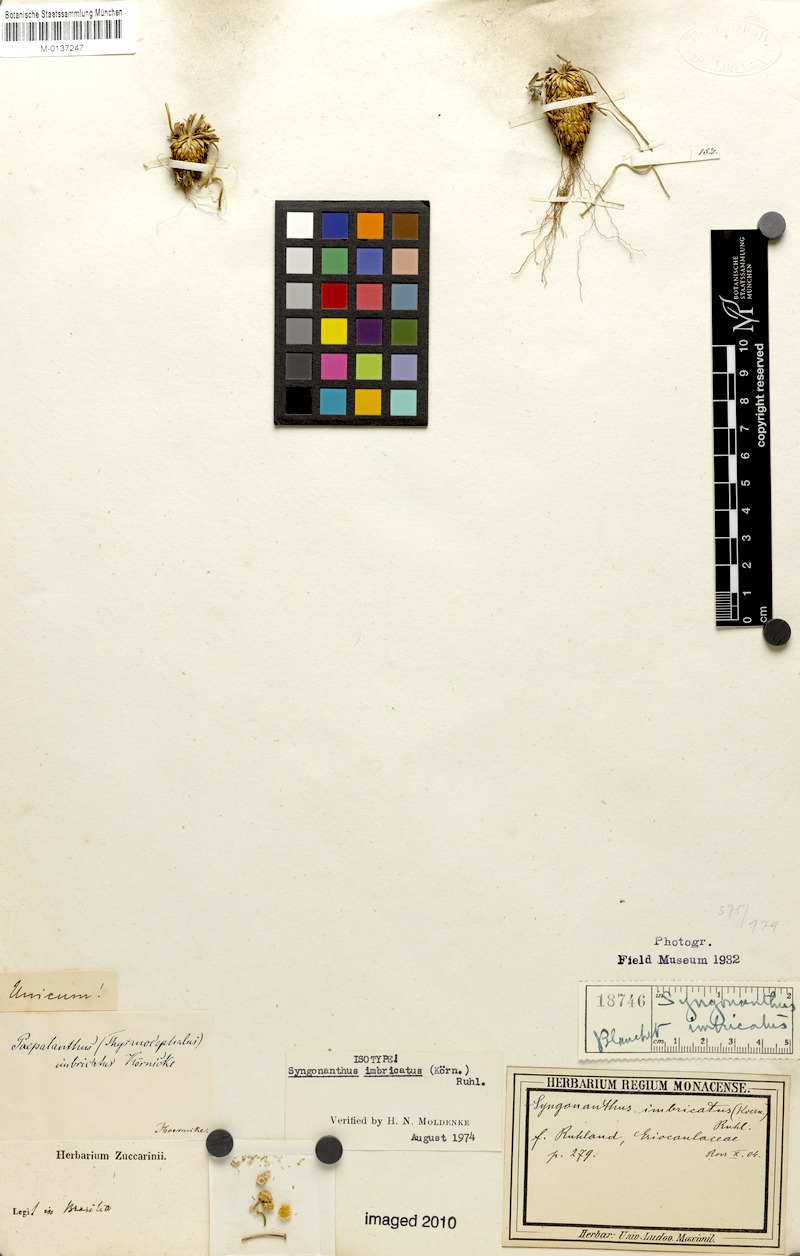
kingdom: Plantae
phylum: Tracheophyta
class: Liliopsida
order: Poales
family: Eriocaulaceae
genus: Comanthera
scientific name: Comanthera imbricata
